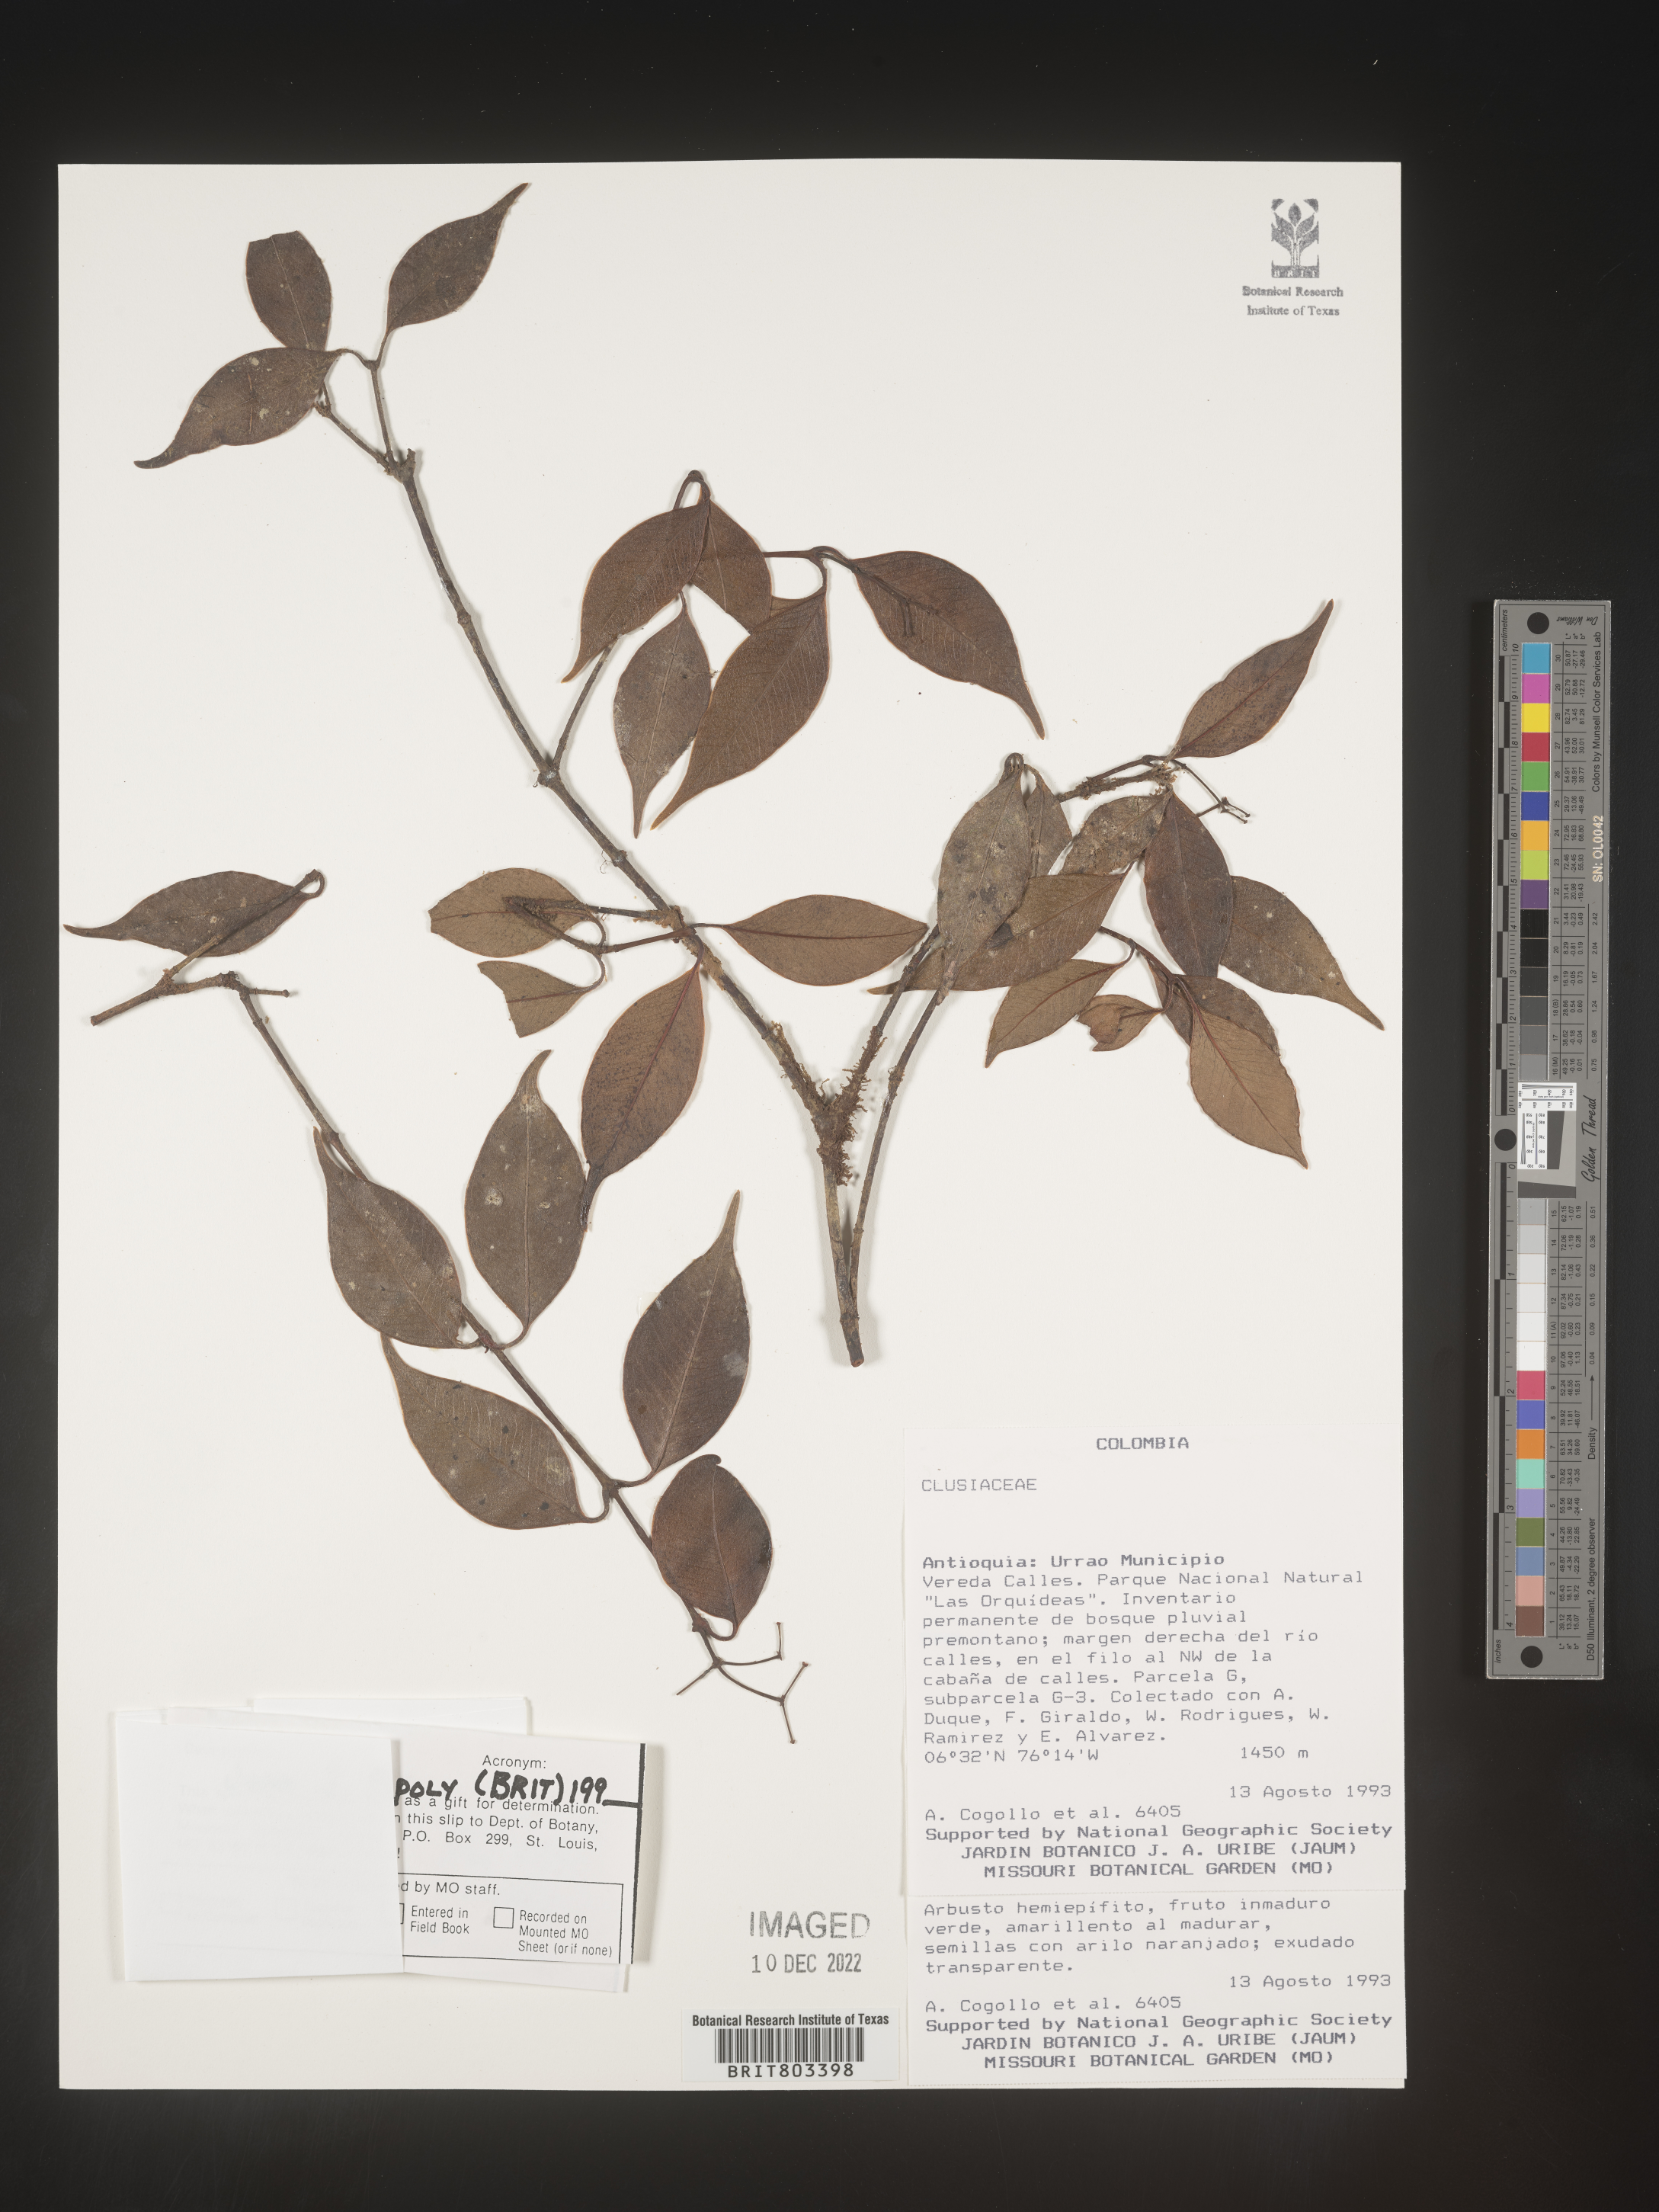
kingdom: Plantae
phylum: Tracheophyta
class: Magnoliopsida
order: Malpighiales
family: Clusiaceae
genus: Tovomita
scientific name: Tovomita
